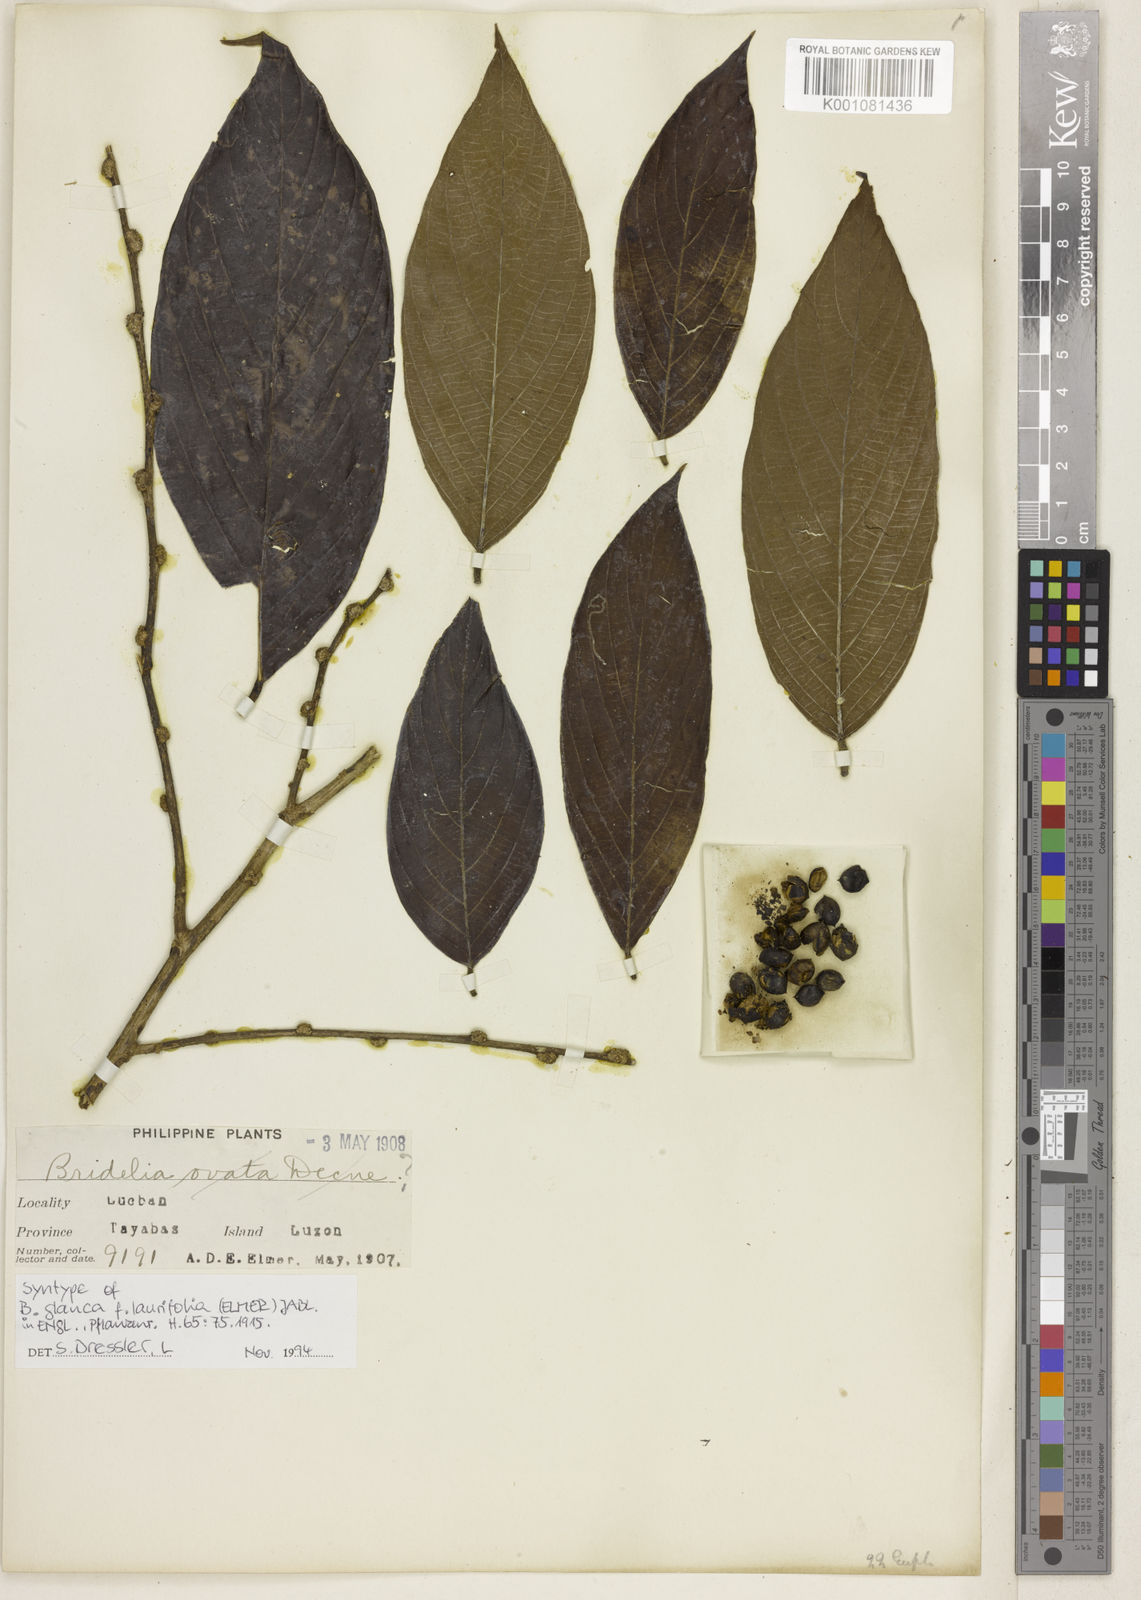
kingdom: Plantae
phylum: Tracheophyta
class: Magnoliopsida
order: Malpighiales
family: Phyllanthaceae
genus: Bridelia
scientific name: Bridelia glauca
